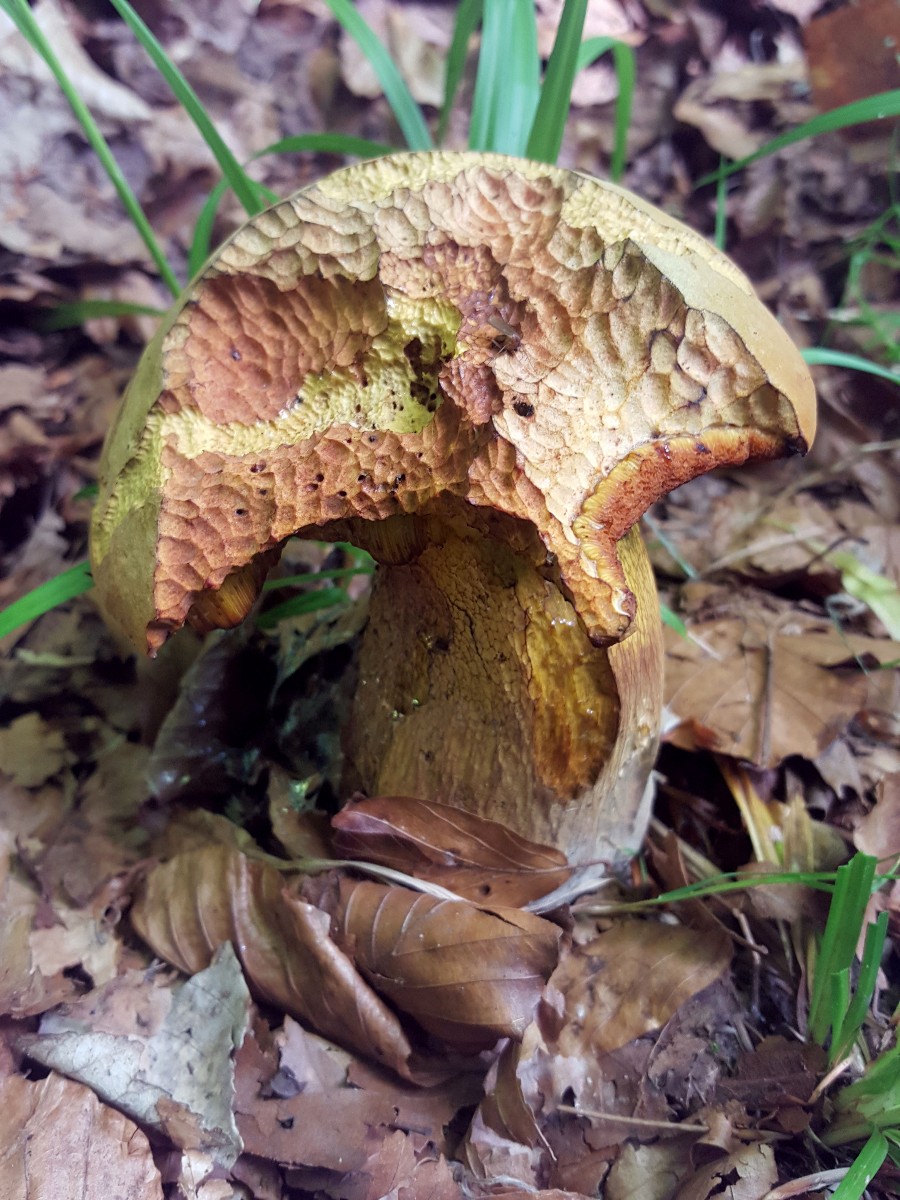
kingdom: Fungi
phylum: Basidiomycota
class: Agaricomycetes
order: Boletales
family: Boletaceae
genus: Suillellus
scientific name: Suillellus luridus
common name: netstokket indigorørhat
